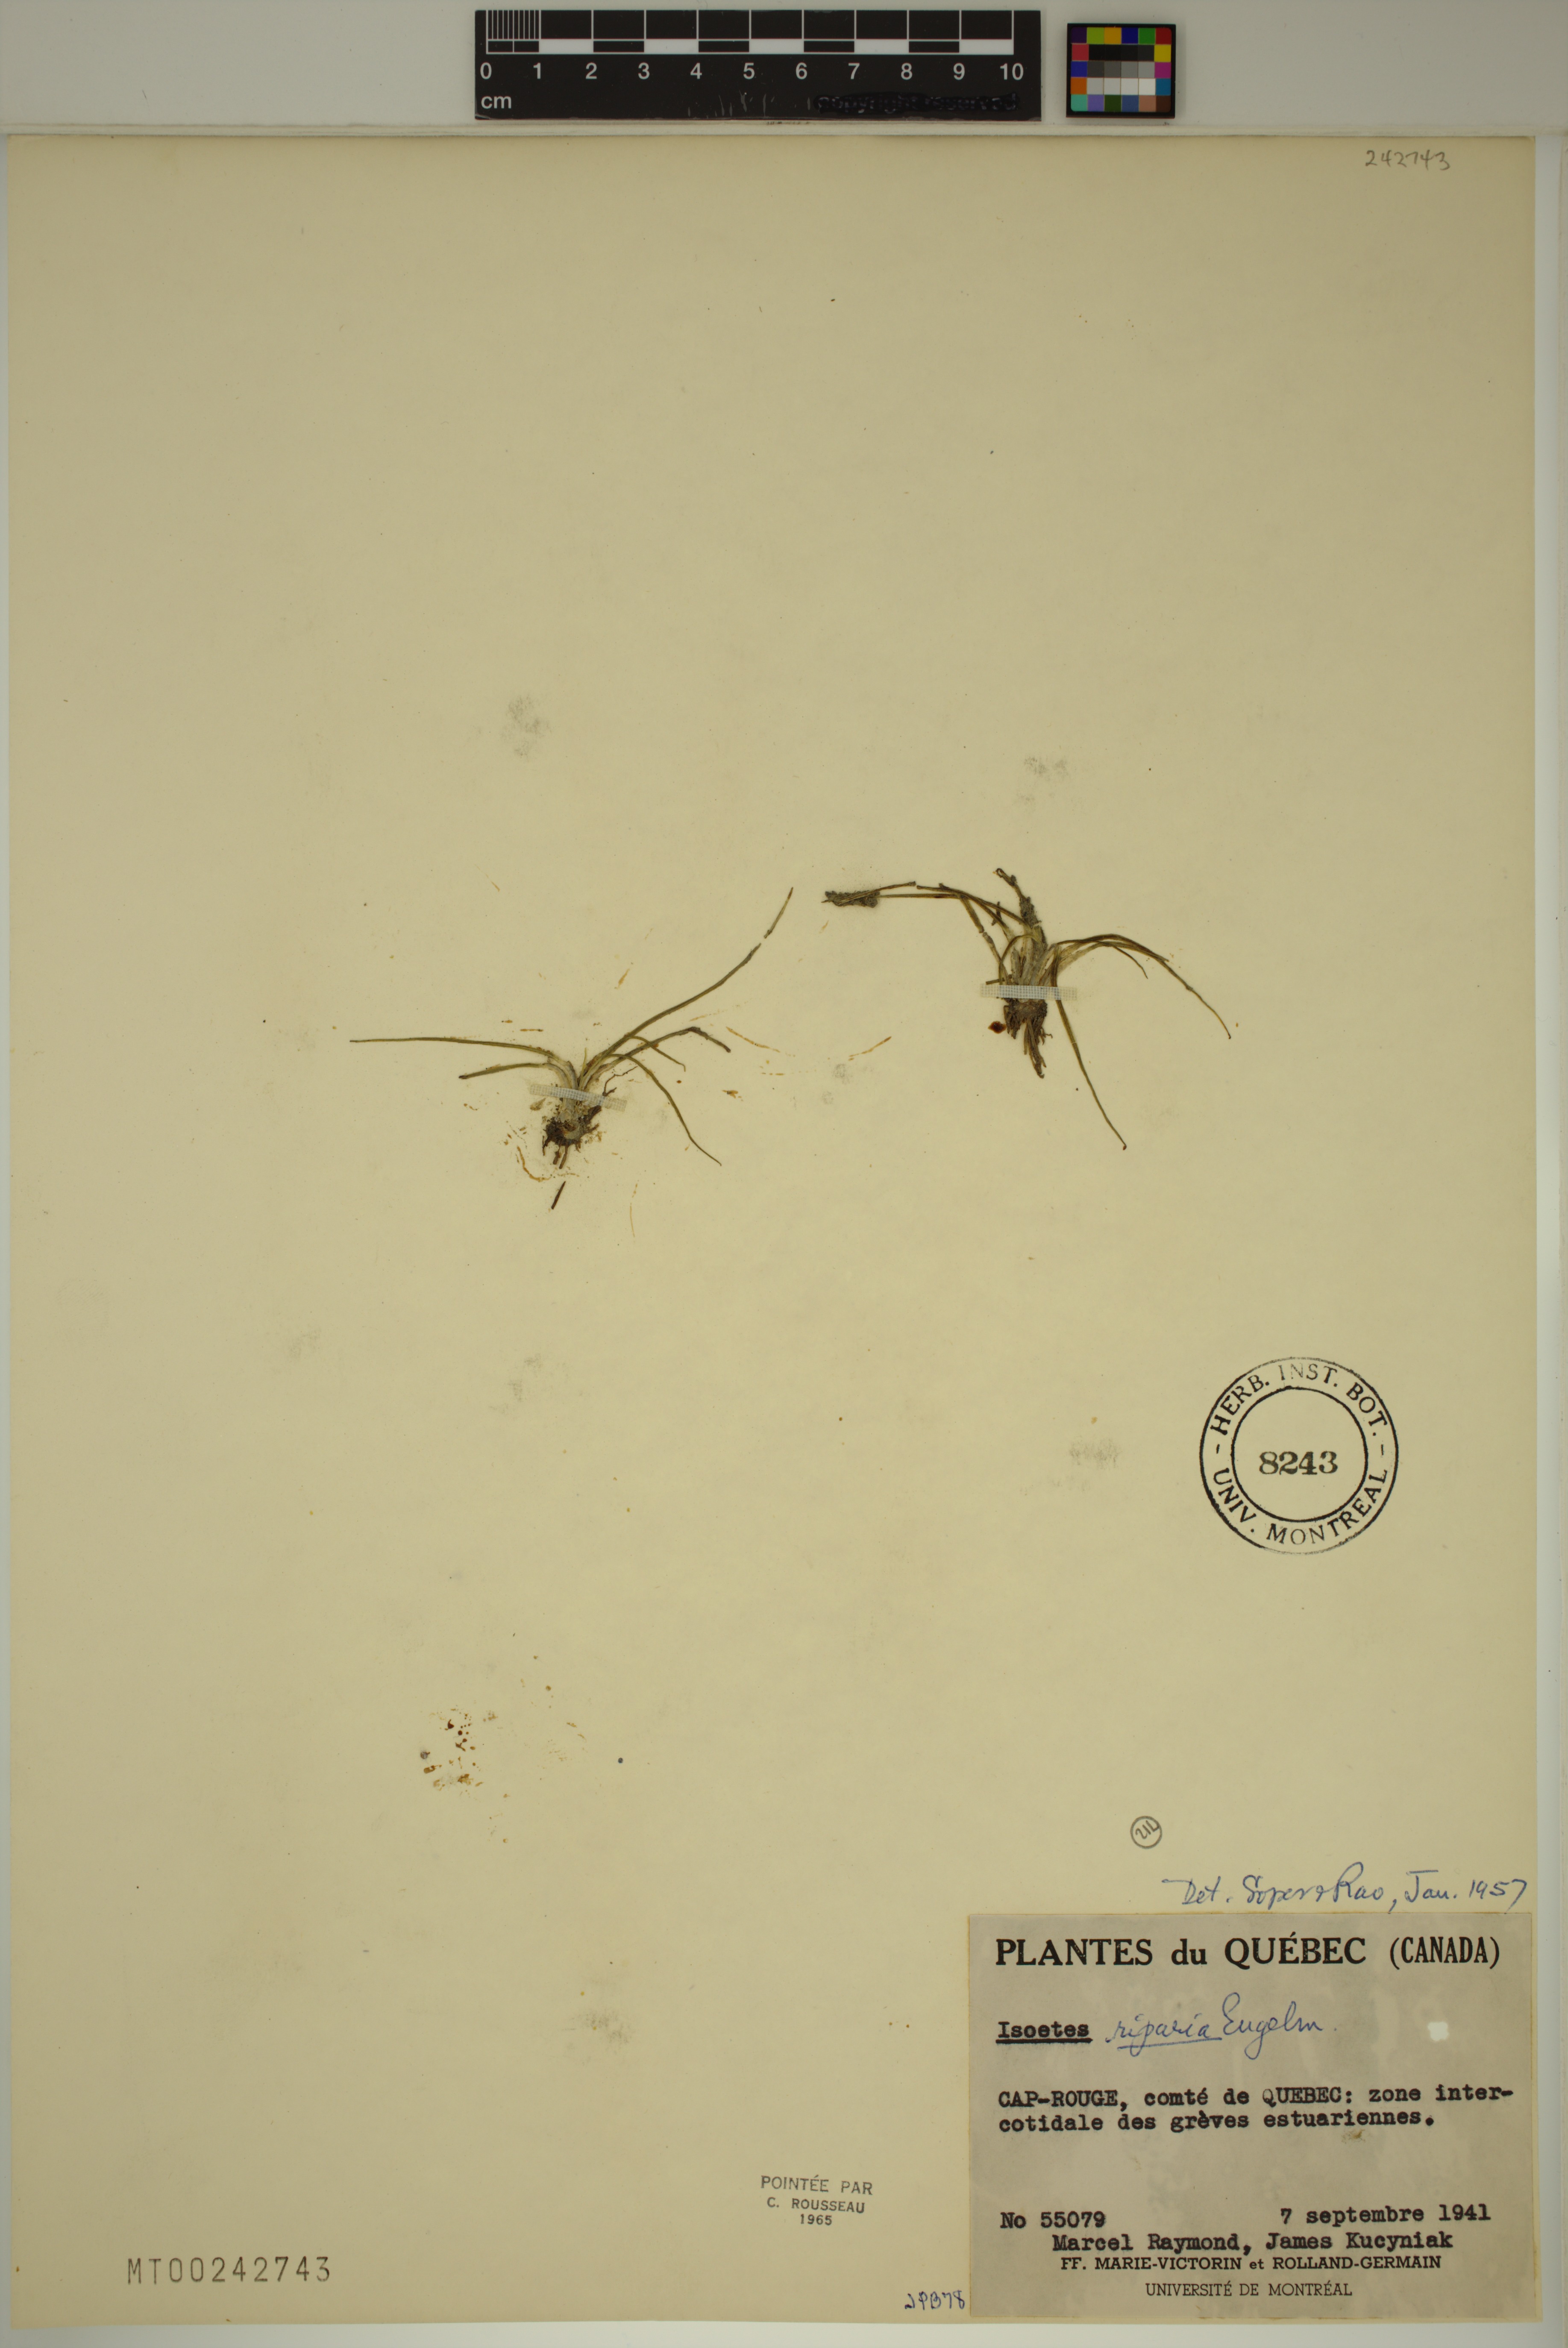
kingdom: Plantae
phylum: Tracheophyta
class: Lycopodiopsida
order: Isoetales
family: Isoetaceae
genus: Isoetes
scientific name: Isoetes laurentiana
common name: St. lawrence quillwort
